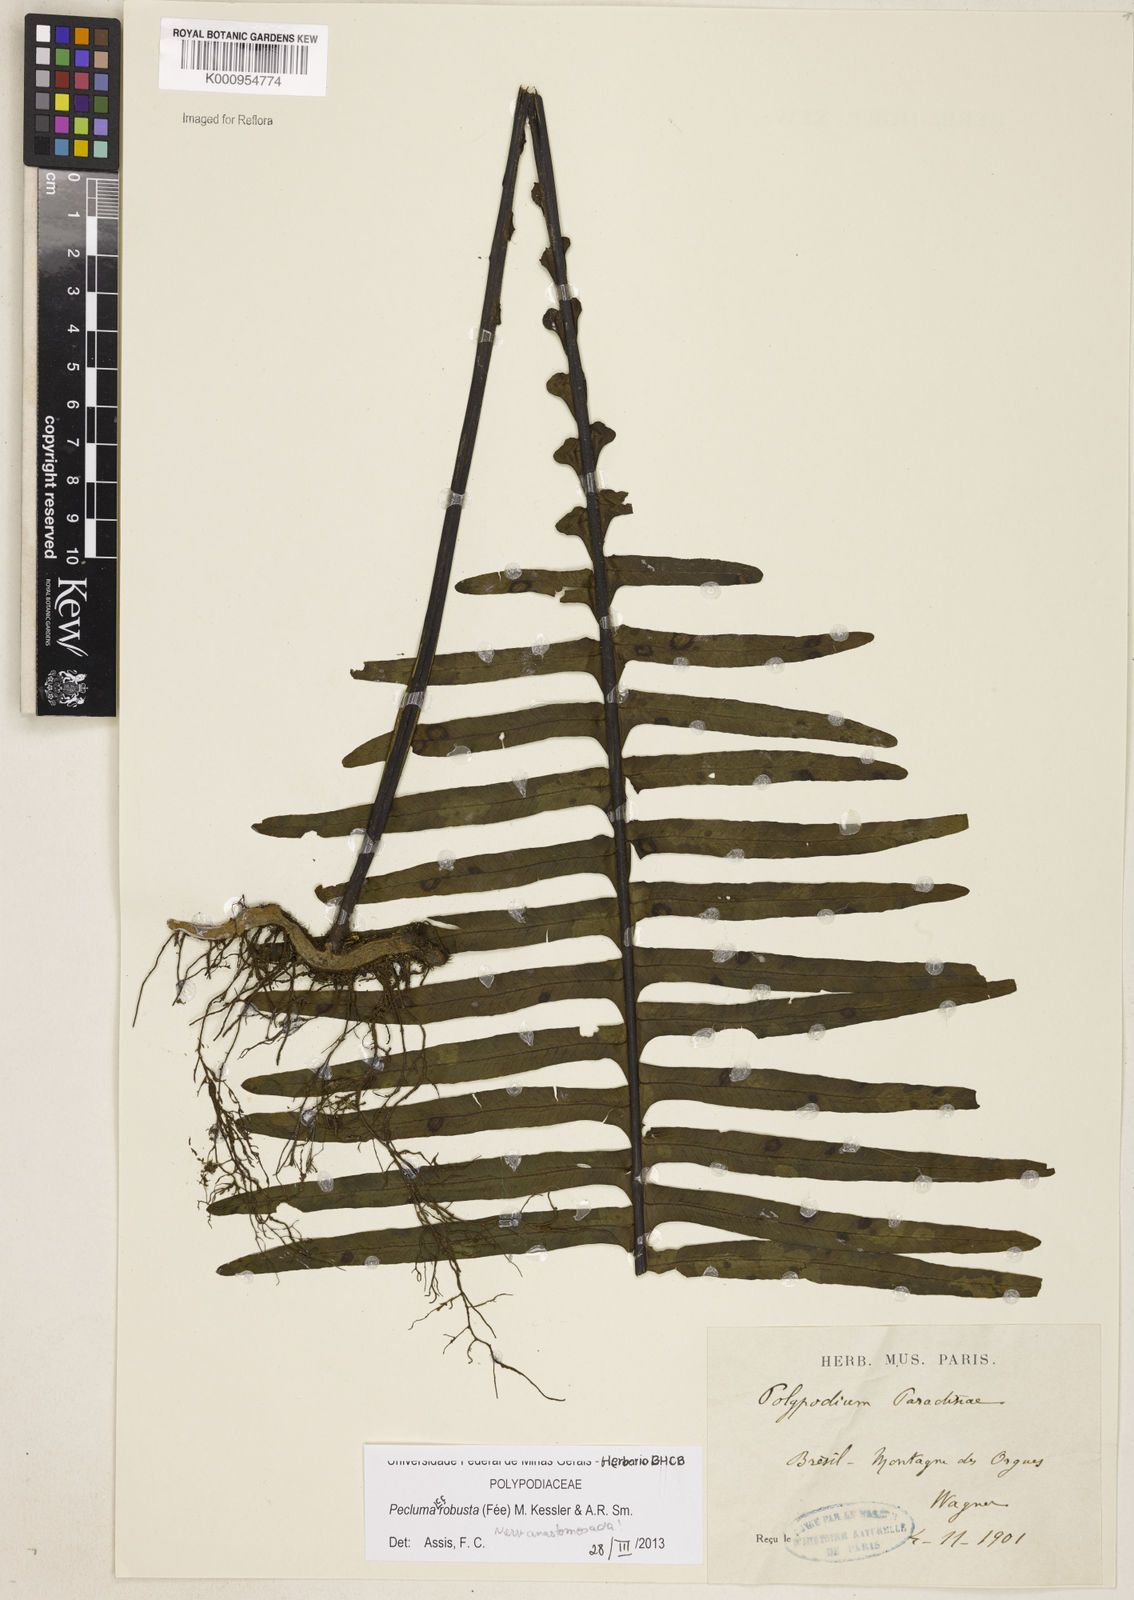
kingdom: Plantae
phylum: Tracheophyta
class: Polypodiopsida
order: Polypodiales
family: Polypodiaceae
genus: Pecluma
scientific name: Pecluma
